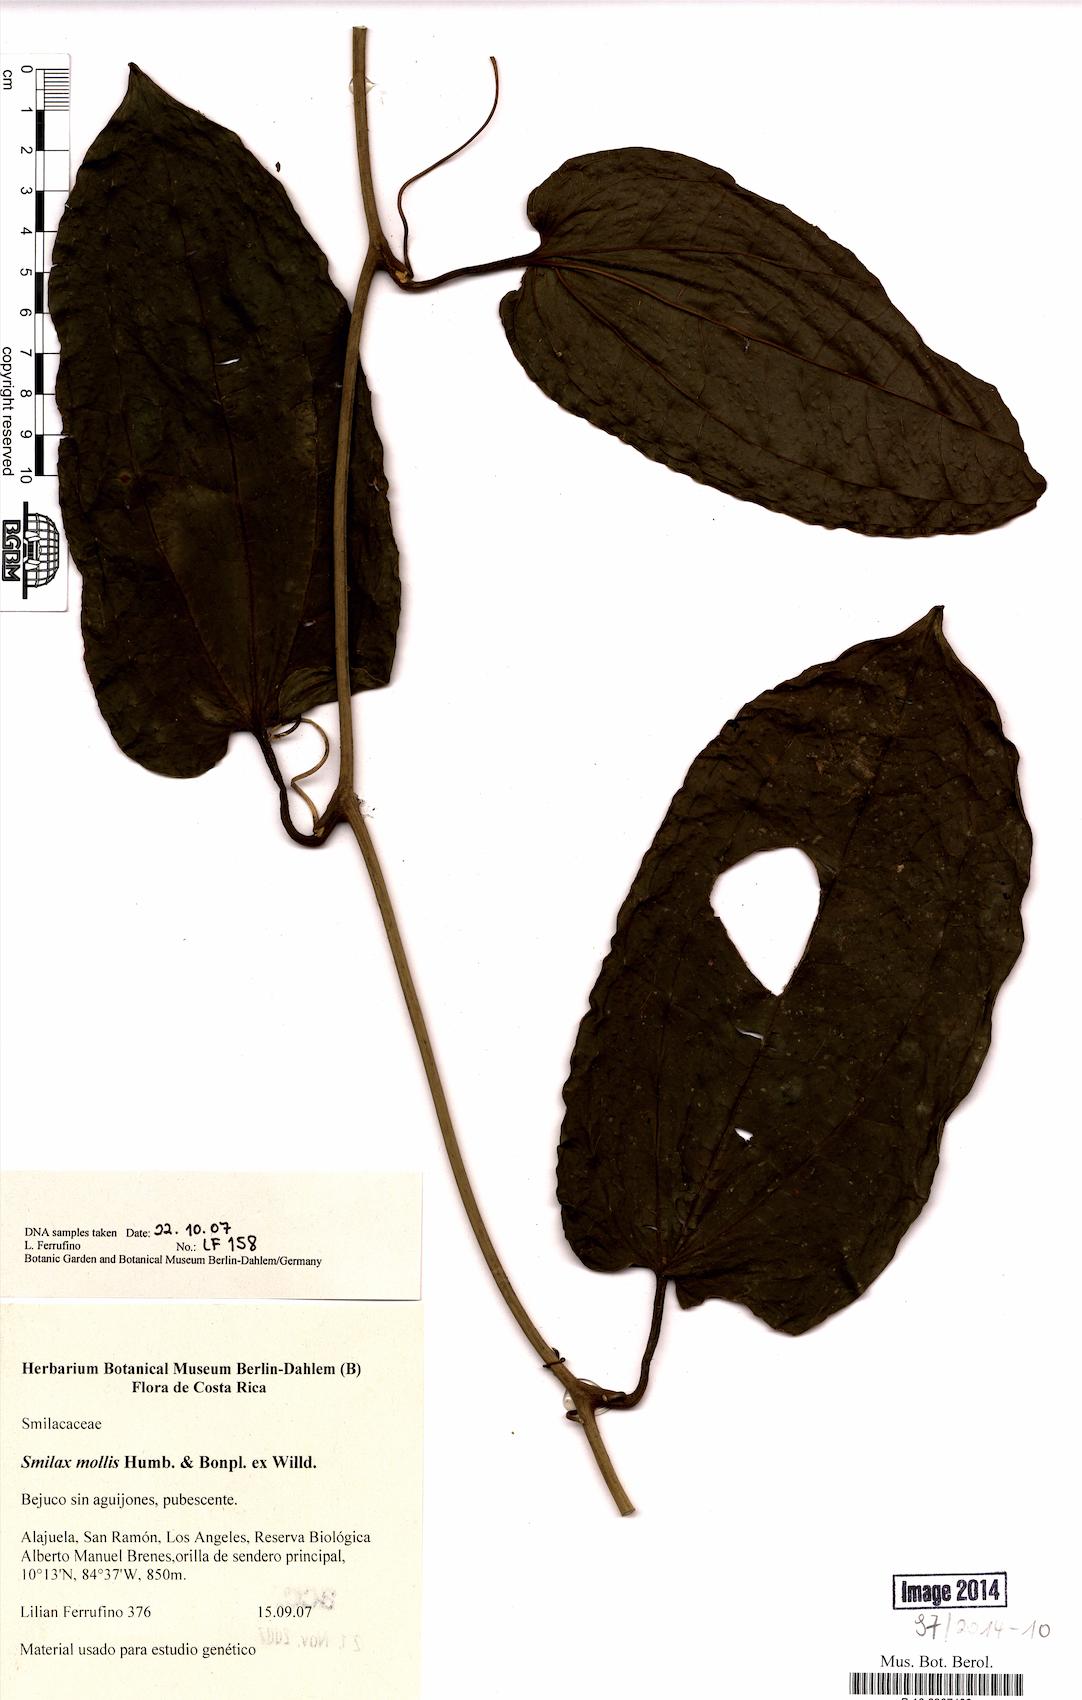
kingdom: Plantae
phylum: Tracheophyta
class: Liliopsida
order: Liliales
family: Smilacaceae
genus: Smilax
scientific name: Smilax mollis
